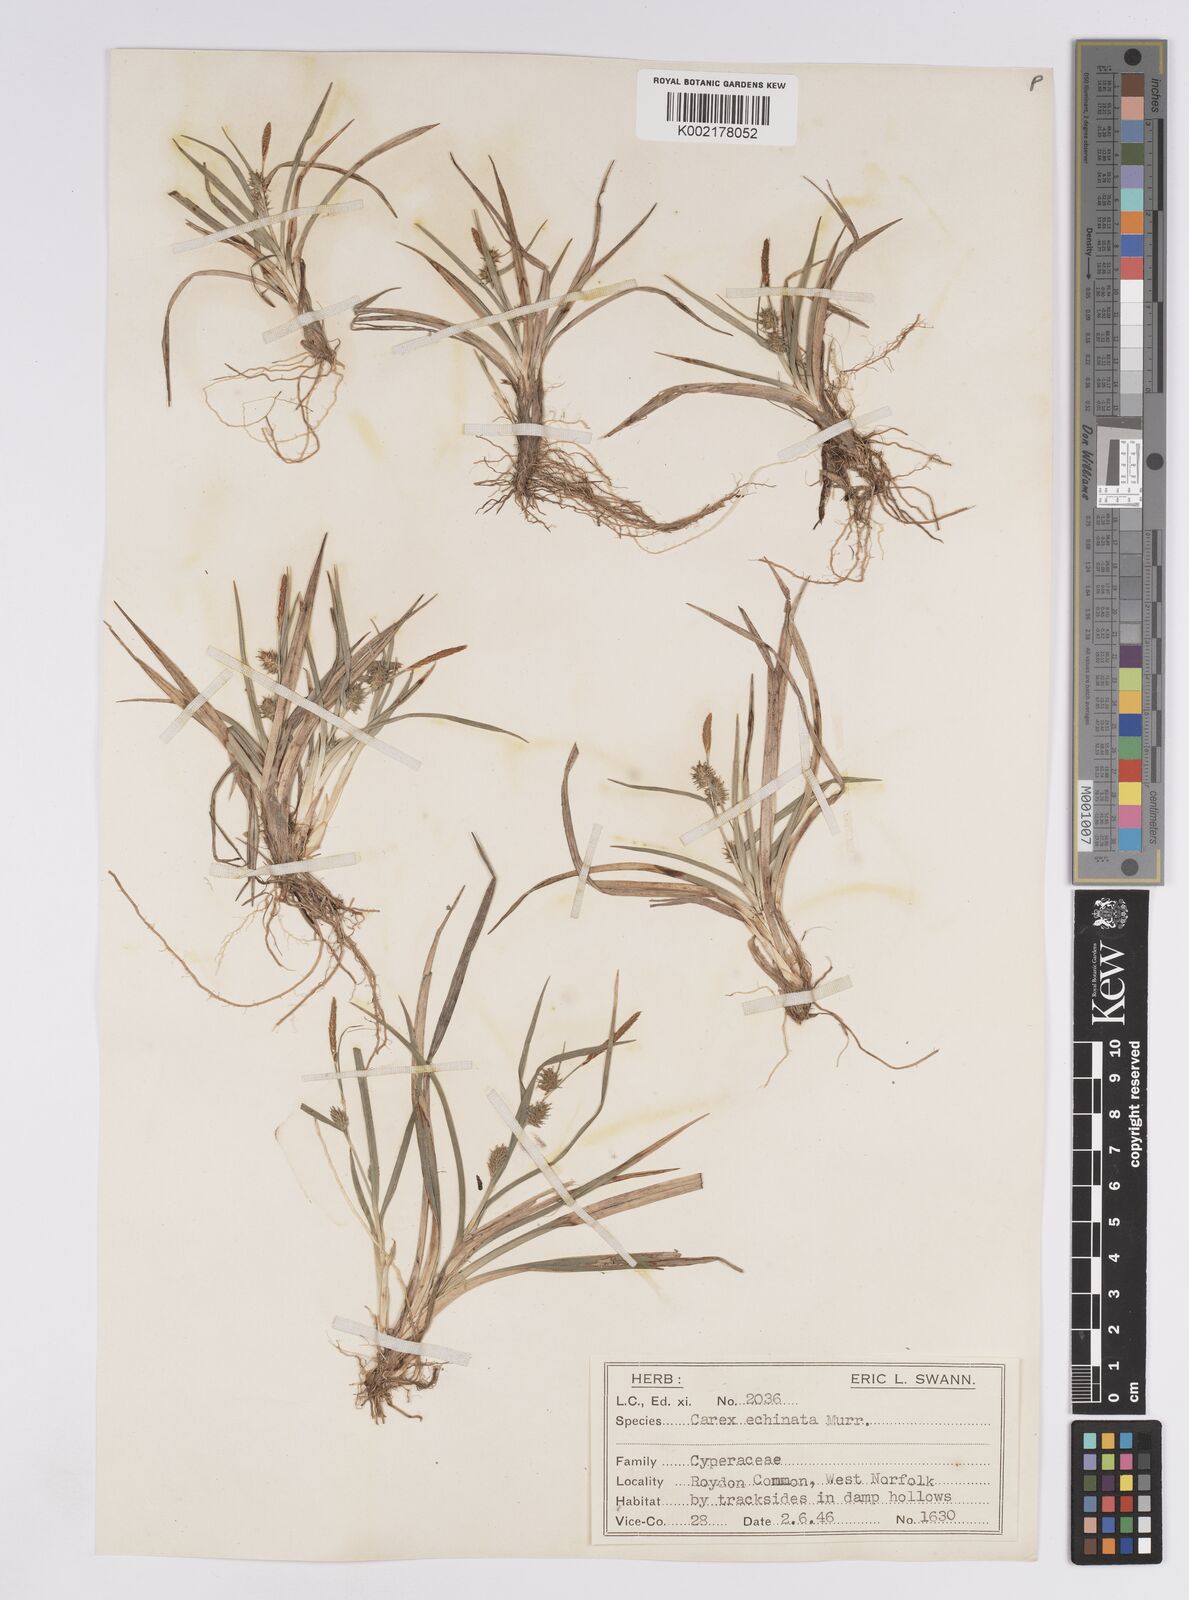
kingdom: Plantae
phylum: Tracheophyta
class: Liliopsida
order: Poales
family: Cyperaceae
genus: Carex
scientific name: Carex demissa
